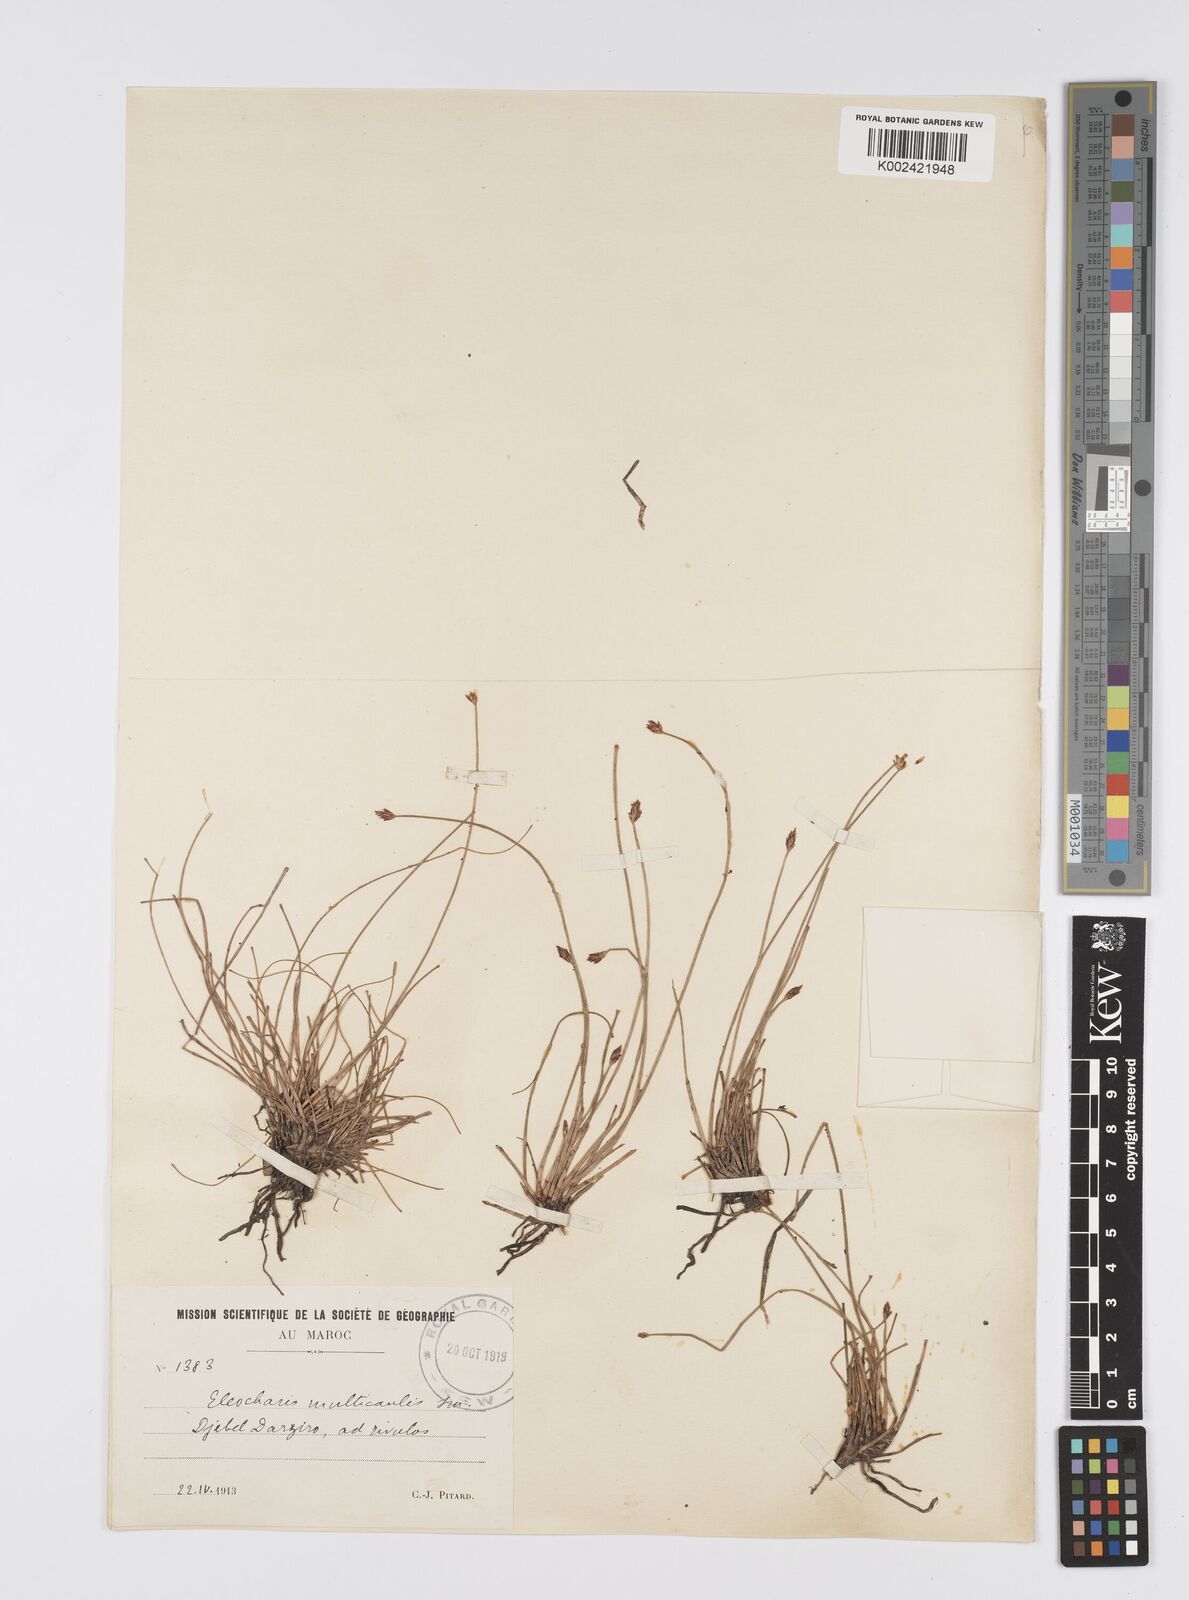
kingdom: Plantae
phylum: Tracheophyta
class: Liliopsida
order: Poales
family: Cyperaceae
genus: Eleocharis
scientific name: Eleocharis multicaulis
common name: Many-stalked spike-rush
